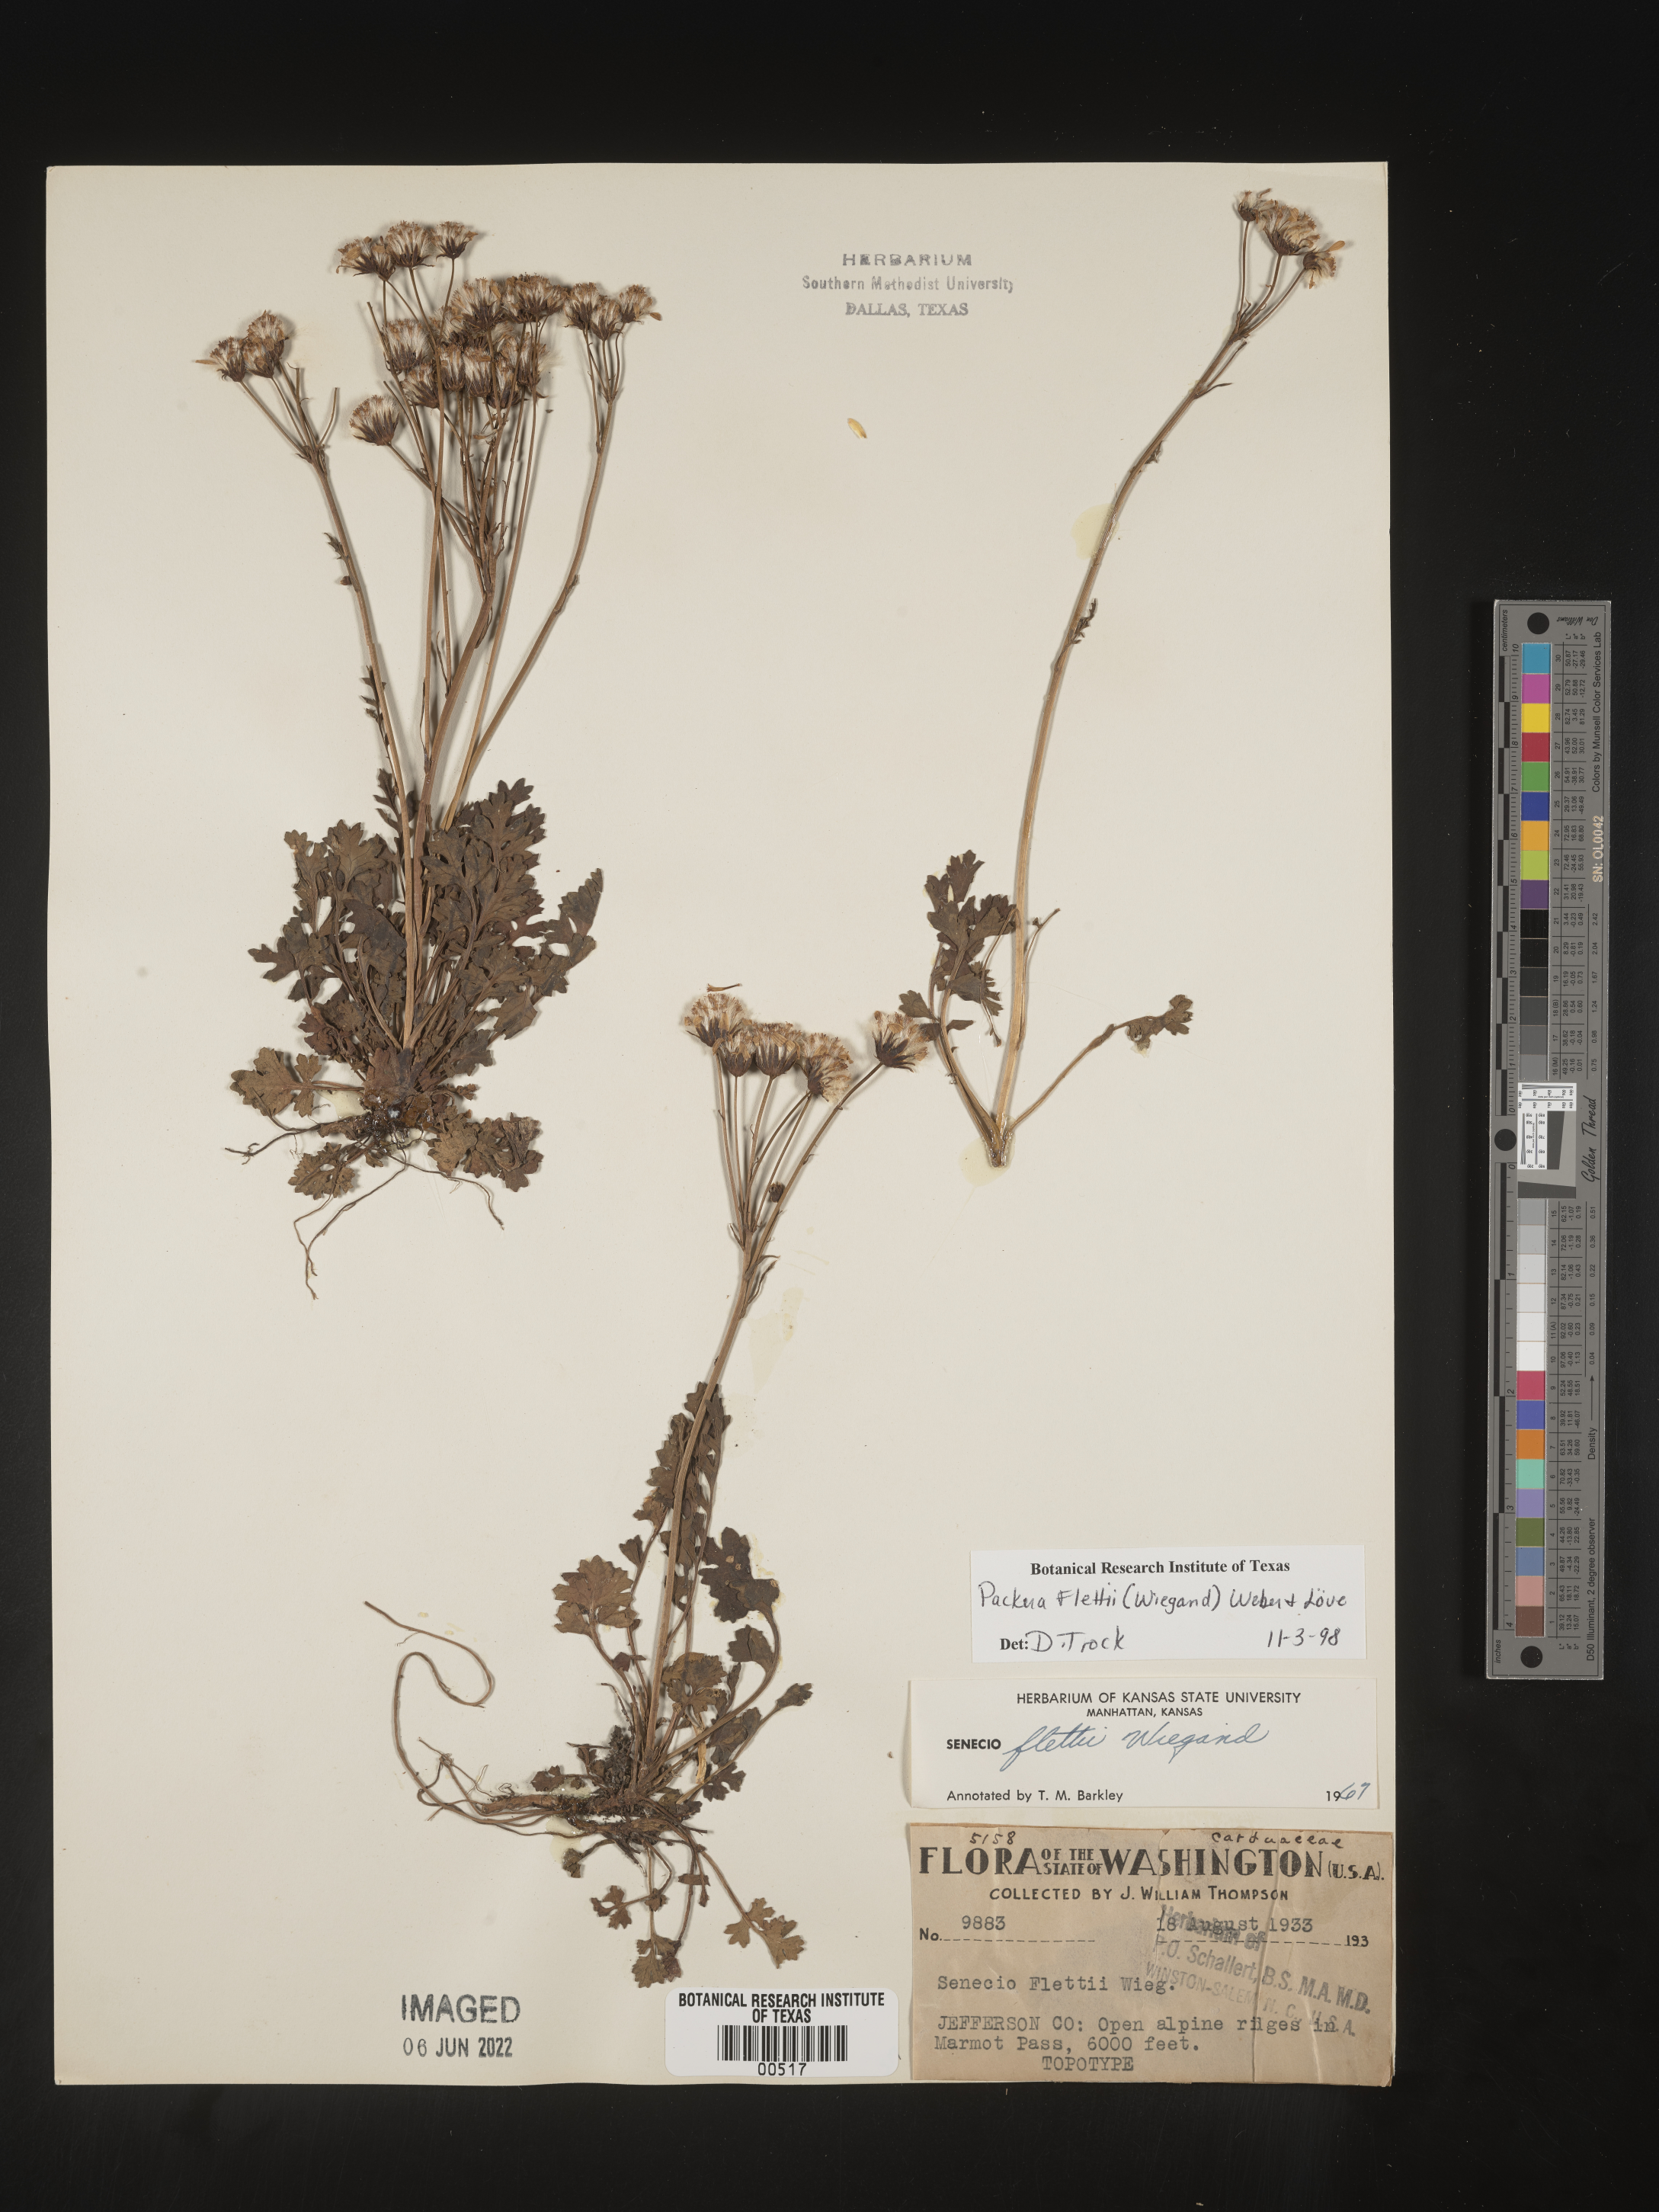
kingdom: Plantae
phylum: Tracheophyta
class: Magnoliopsida
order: Asterales
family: Asteraceae
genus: Packera
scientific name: Packera flettii
